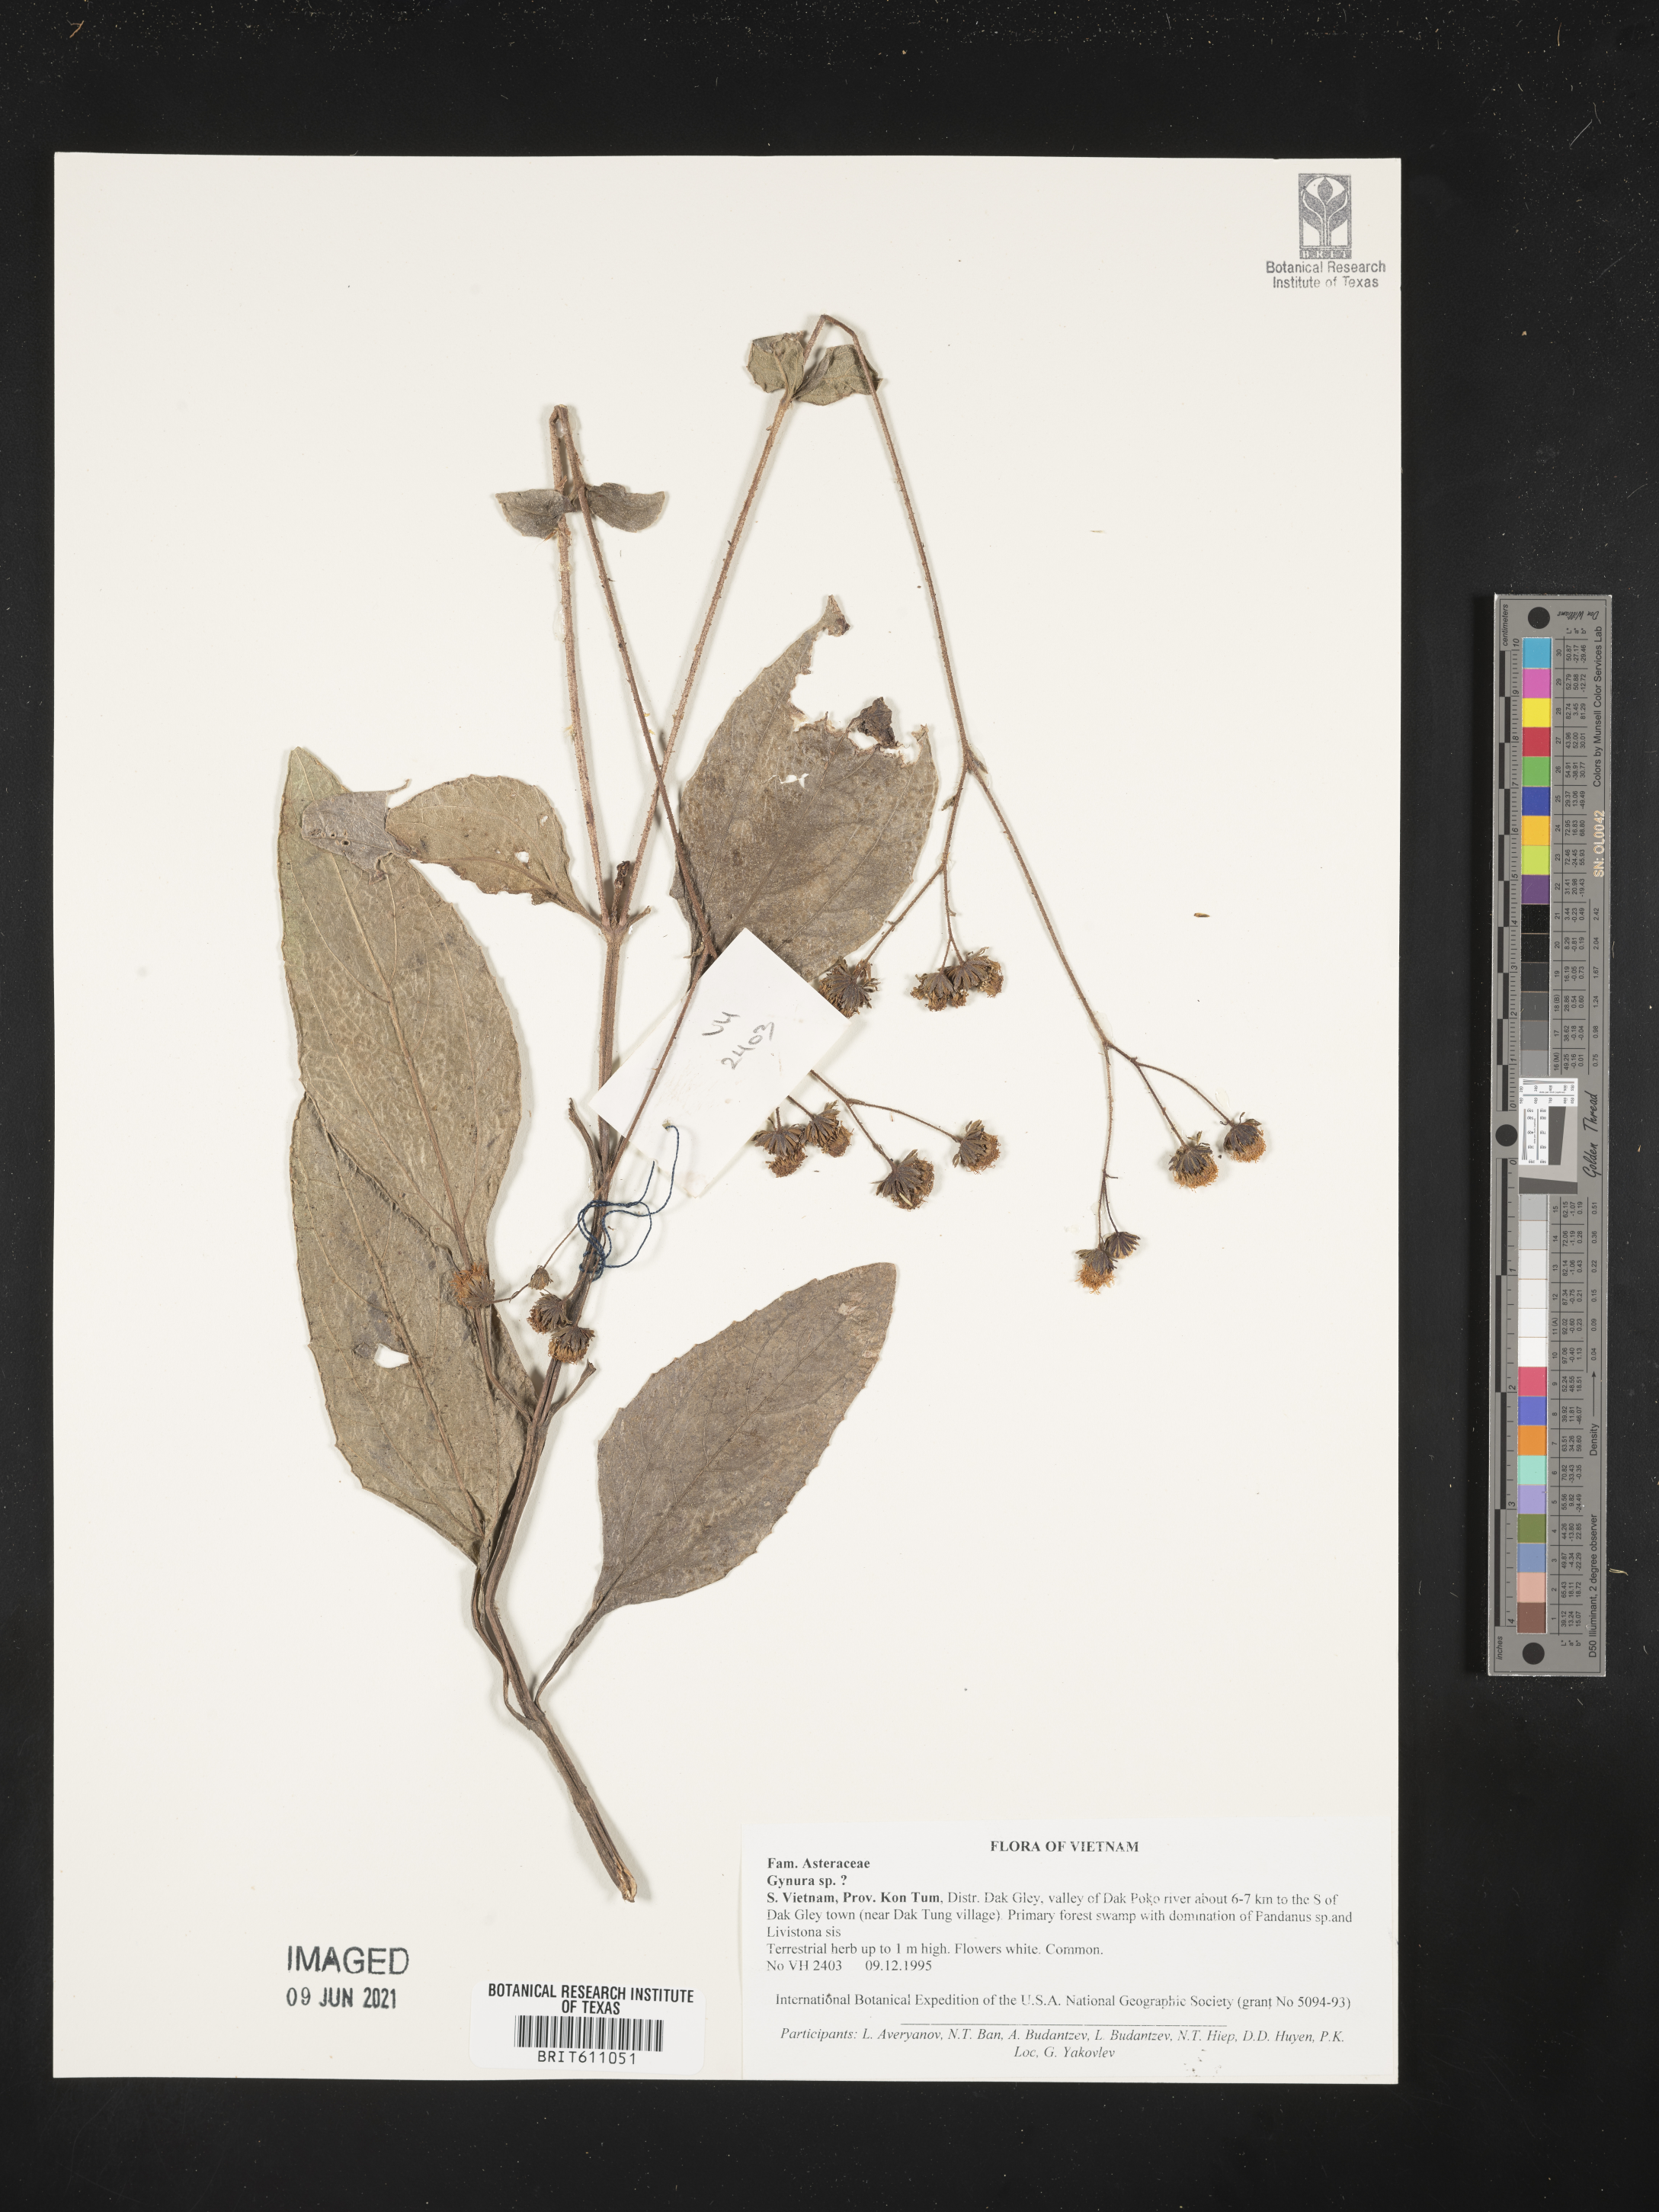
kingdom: Plantae
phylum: Tracheophyta
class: Magnoliopsida
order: Asterales
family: Asteraceae
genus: Gynura
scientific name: Gynura
